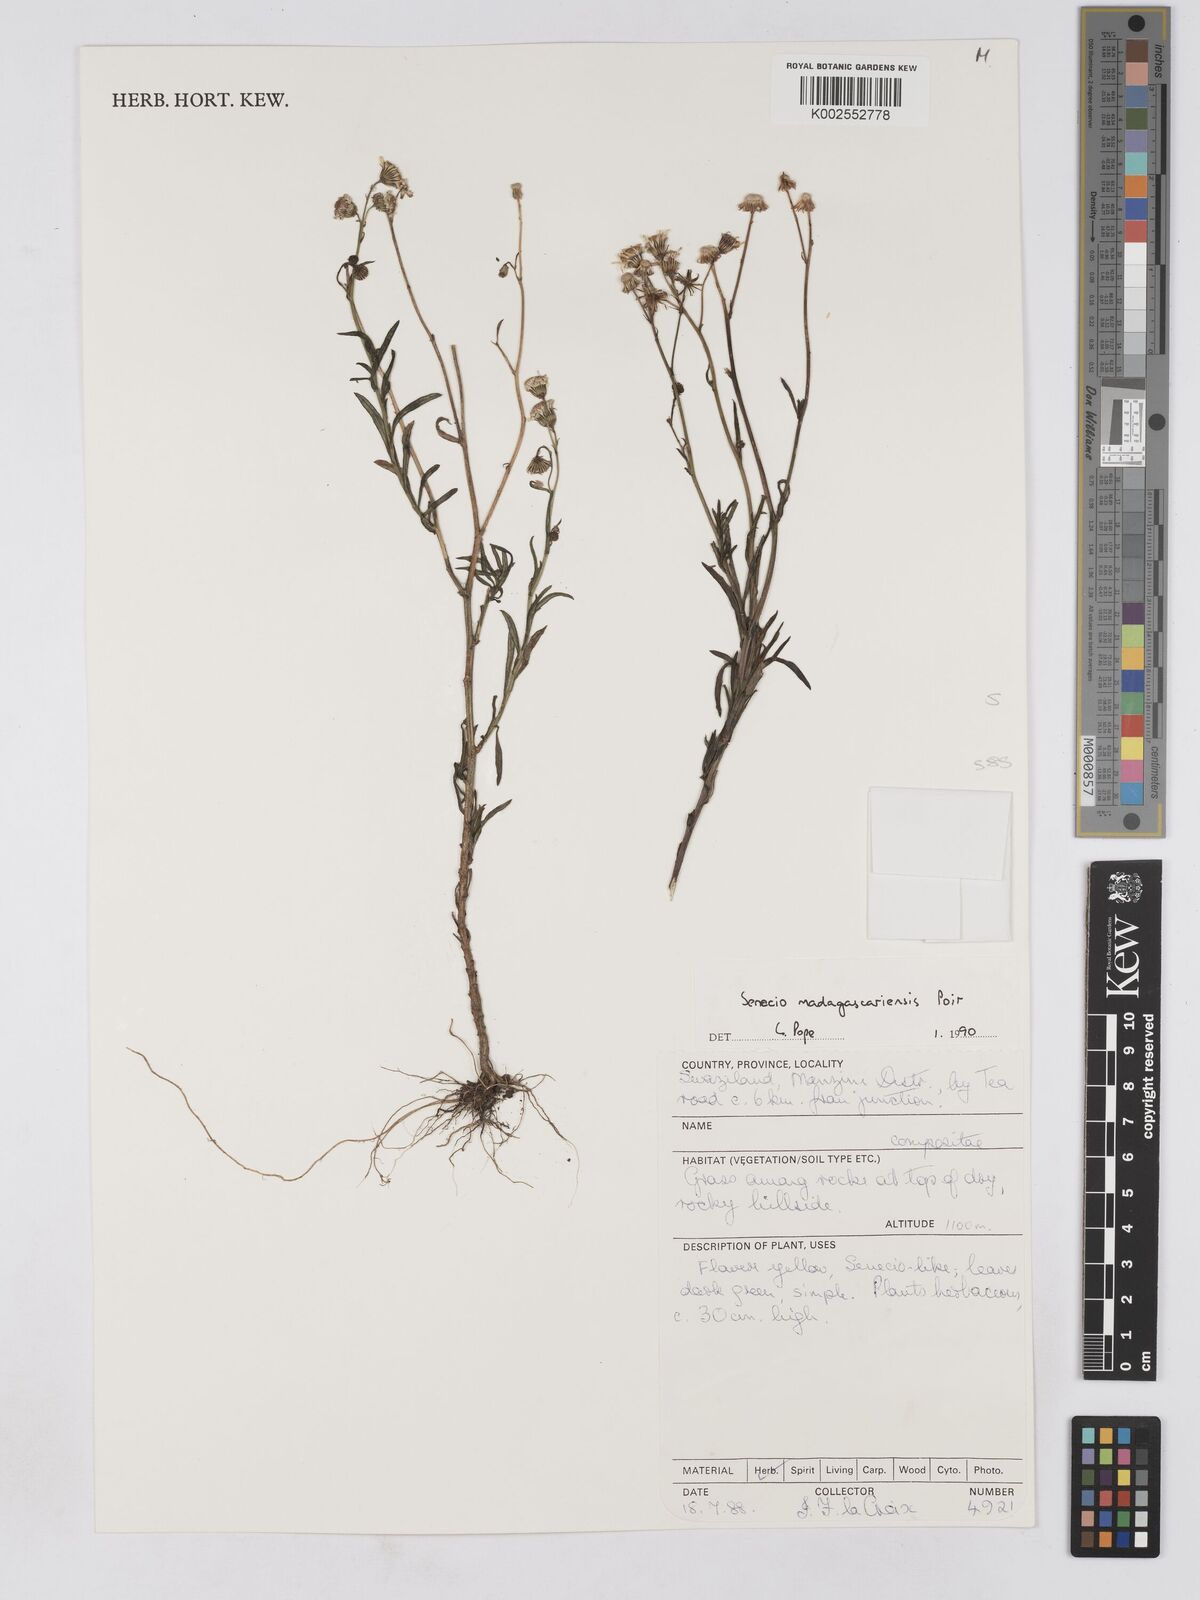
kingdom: Plantae
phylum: Tracheophyta
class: Magnoliopsida
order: Asterales
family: Asteraceae
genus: Senecio
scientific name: Senecio madagascariensis
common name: Madagascar ragwort
